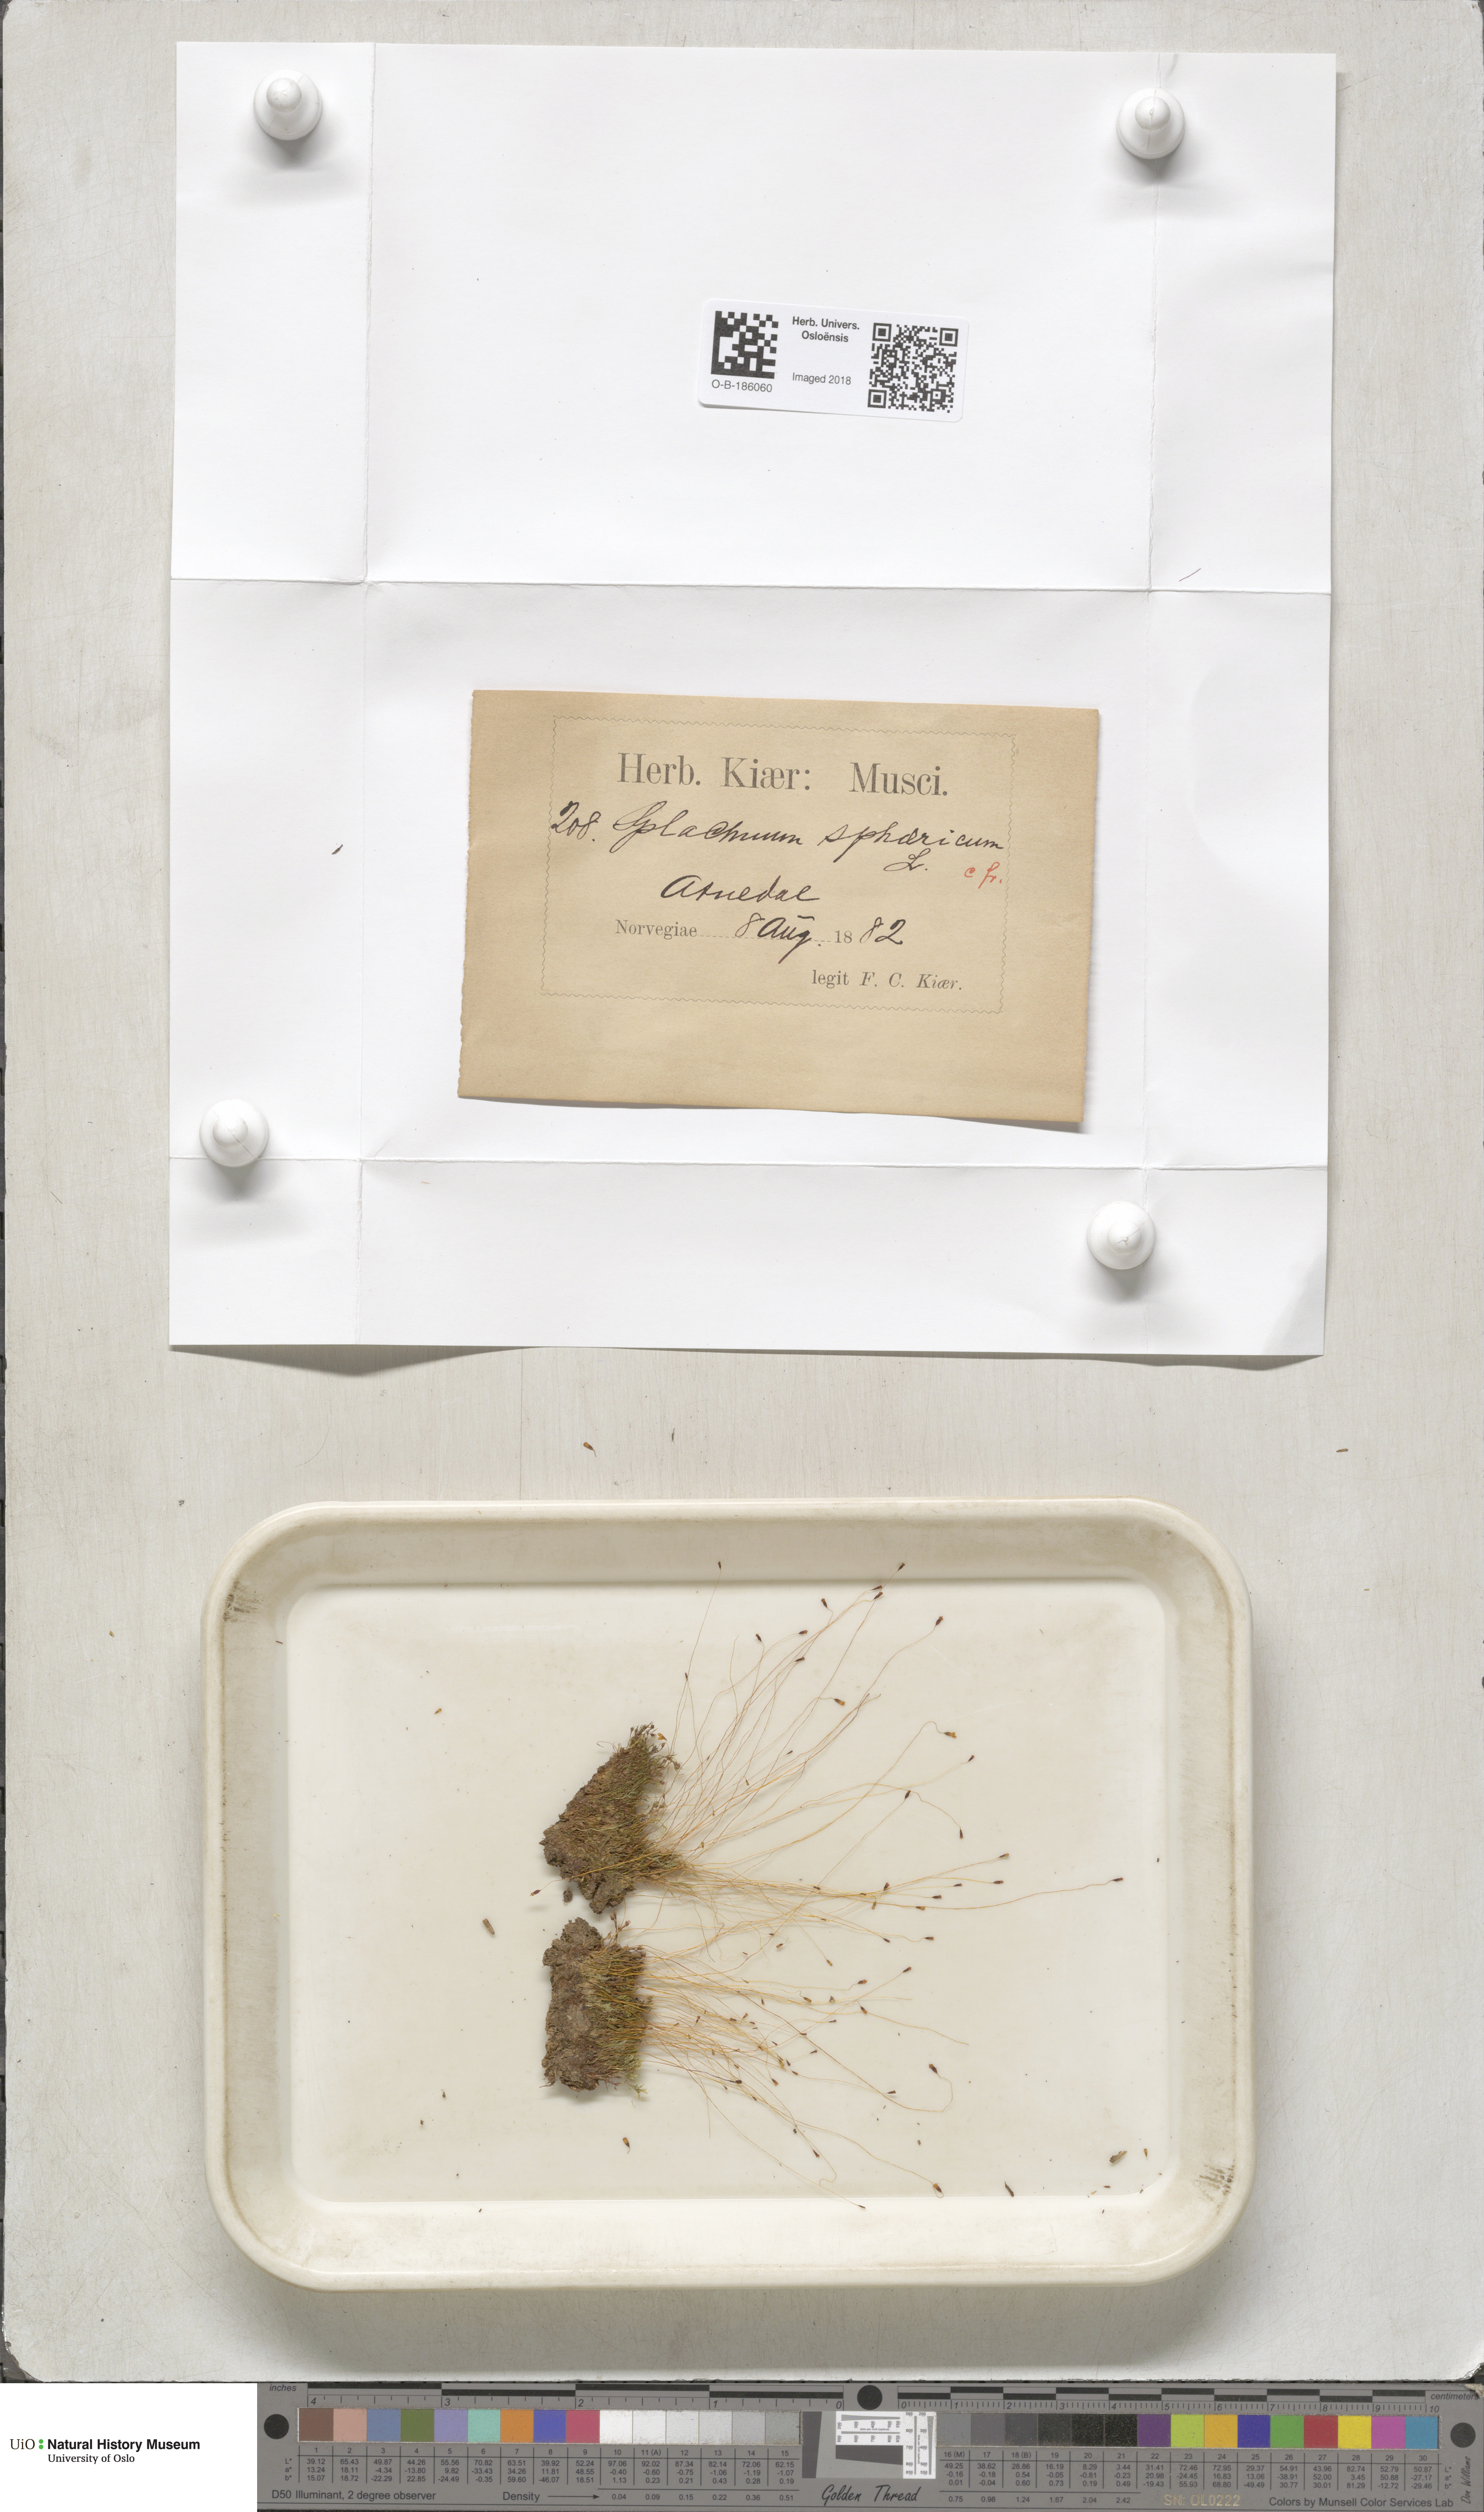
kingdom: Plantae
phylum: Bryophyta
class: Bryopsida
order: Splachnales
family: Splachnaceae
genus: Splachnum
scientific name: Splachnum sphaericum
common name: Round-fruited dung moss
